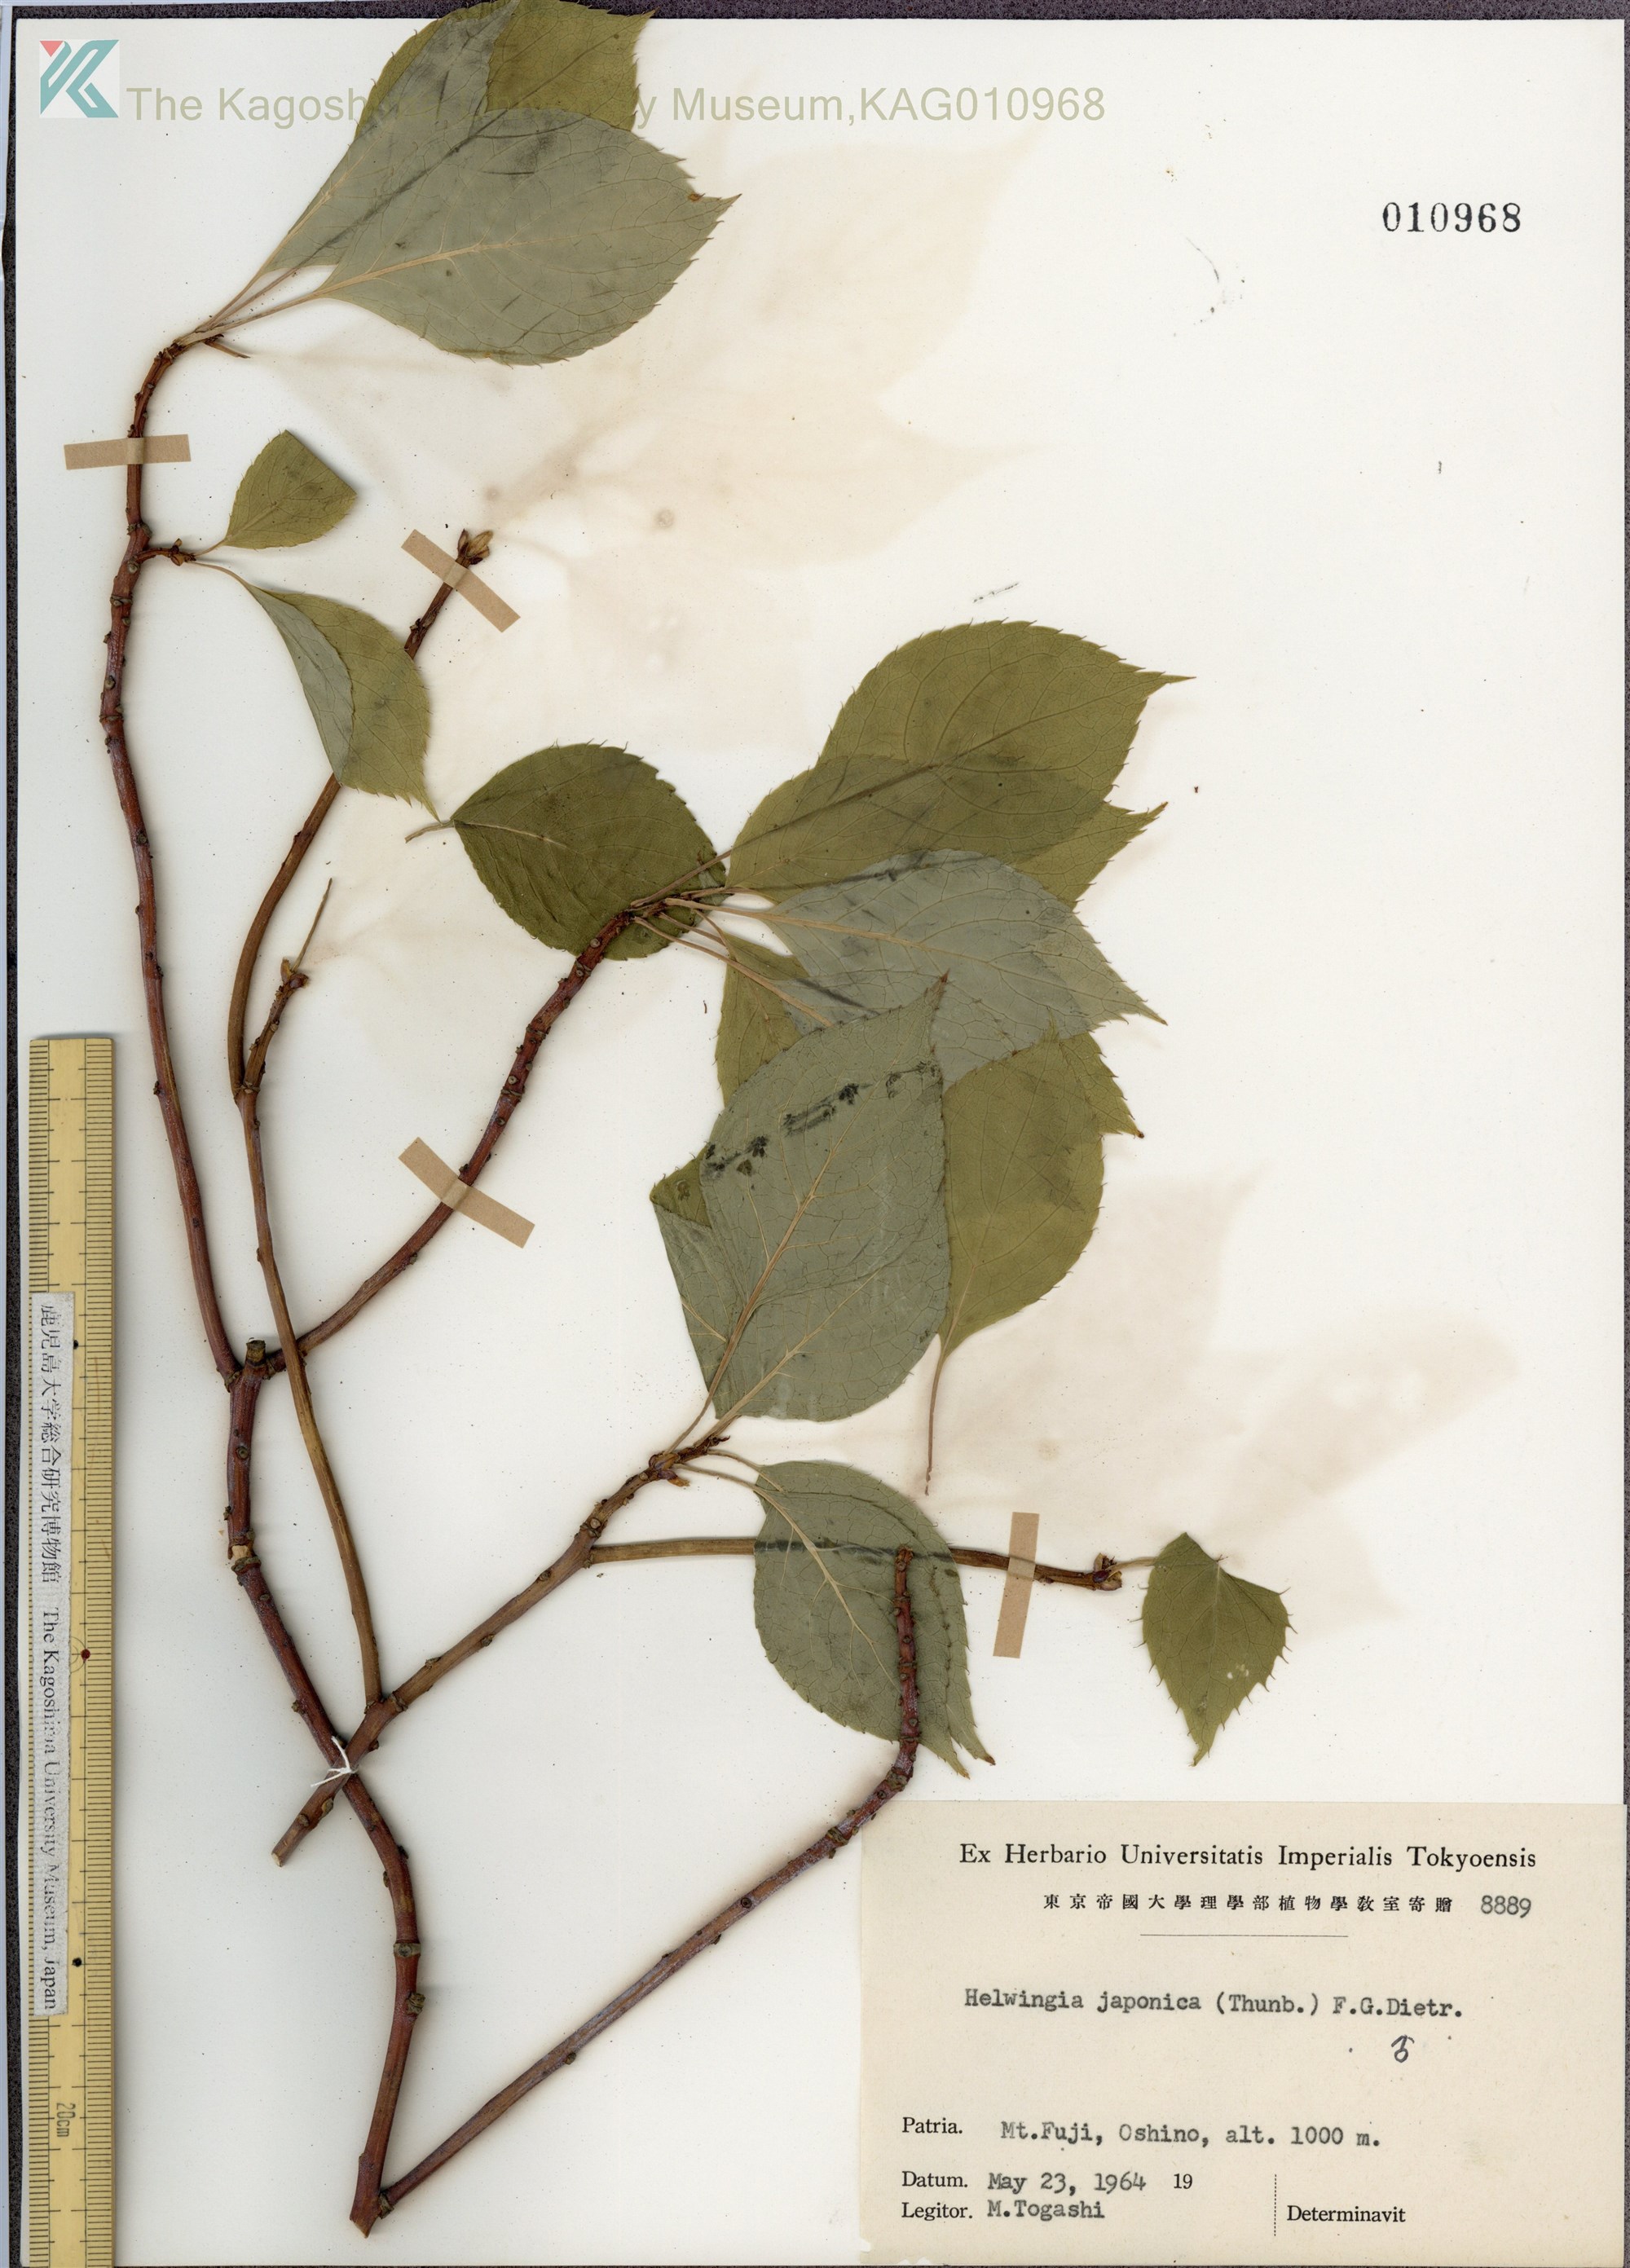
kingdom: Plantae
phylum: Tracheophyta
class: Magnoliopsida
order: Aquifoliales
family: Helwingiaceae
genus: Helwingia
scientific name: Helwingia japonica
